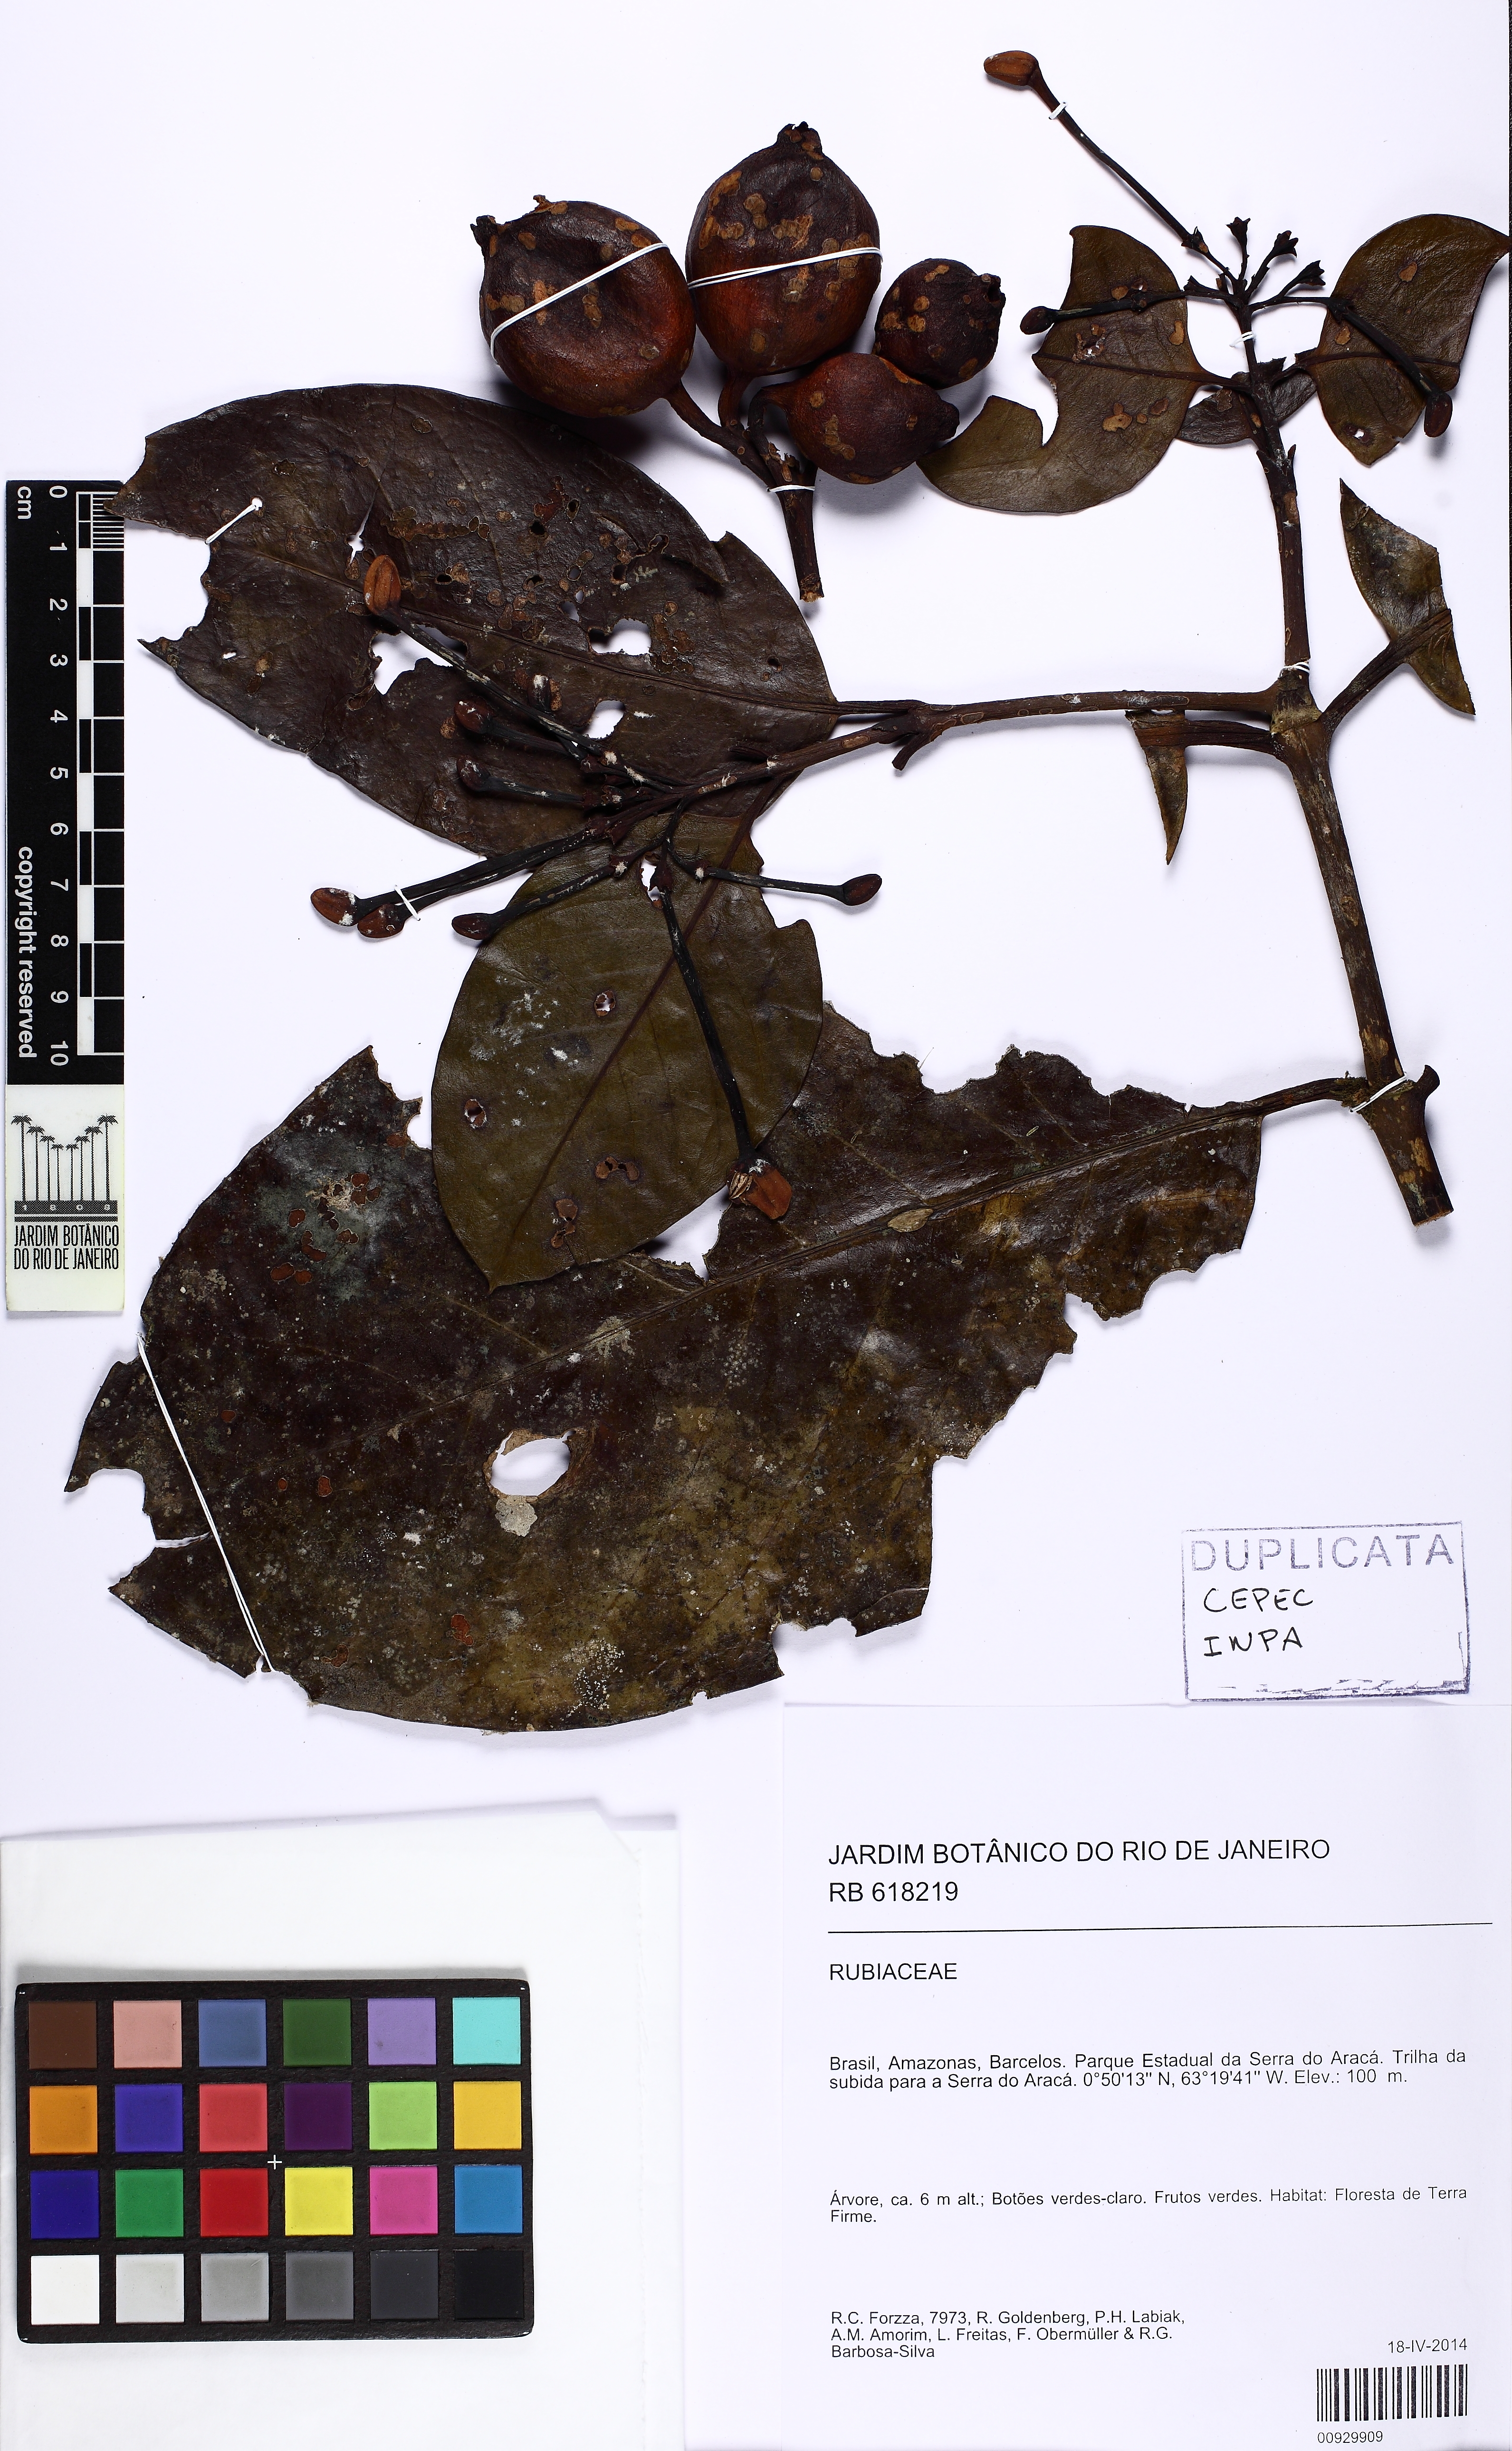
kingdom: Plantae
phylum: Tracheophyta
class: Magnoliopsida
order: Gentianales
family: Rubiaceae
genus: Posoqueria
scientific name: Posoqueria latifolia
